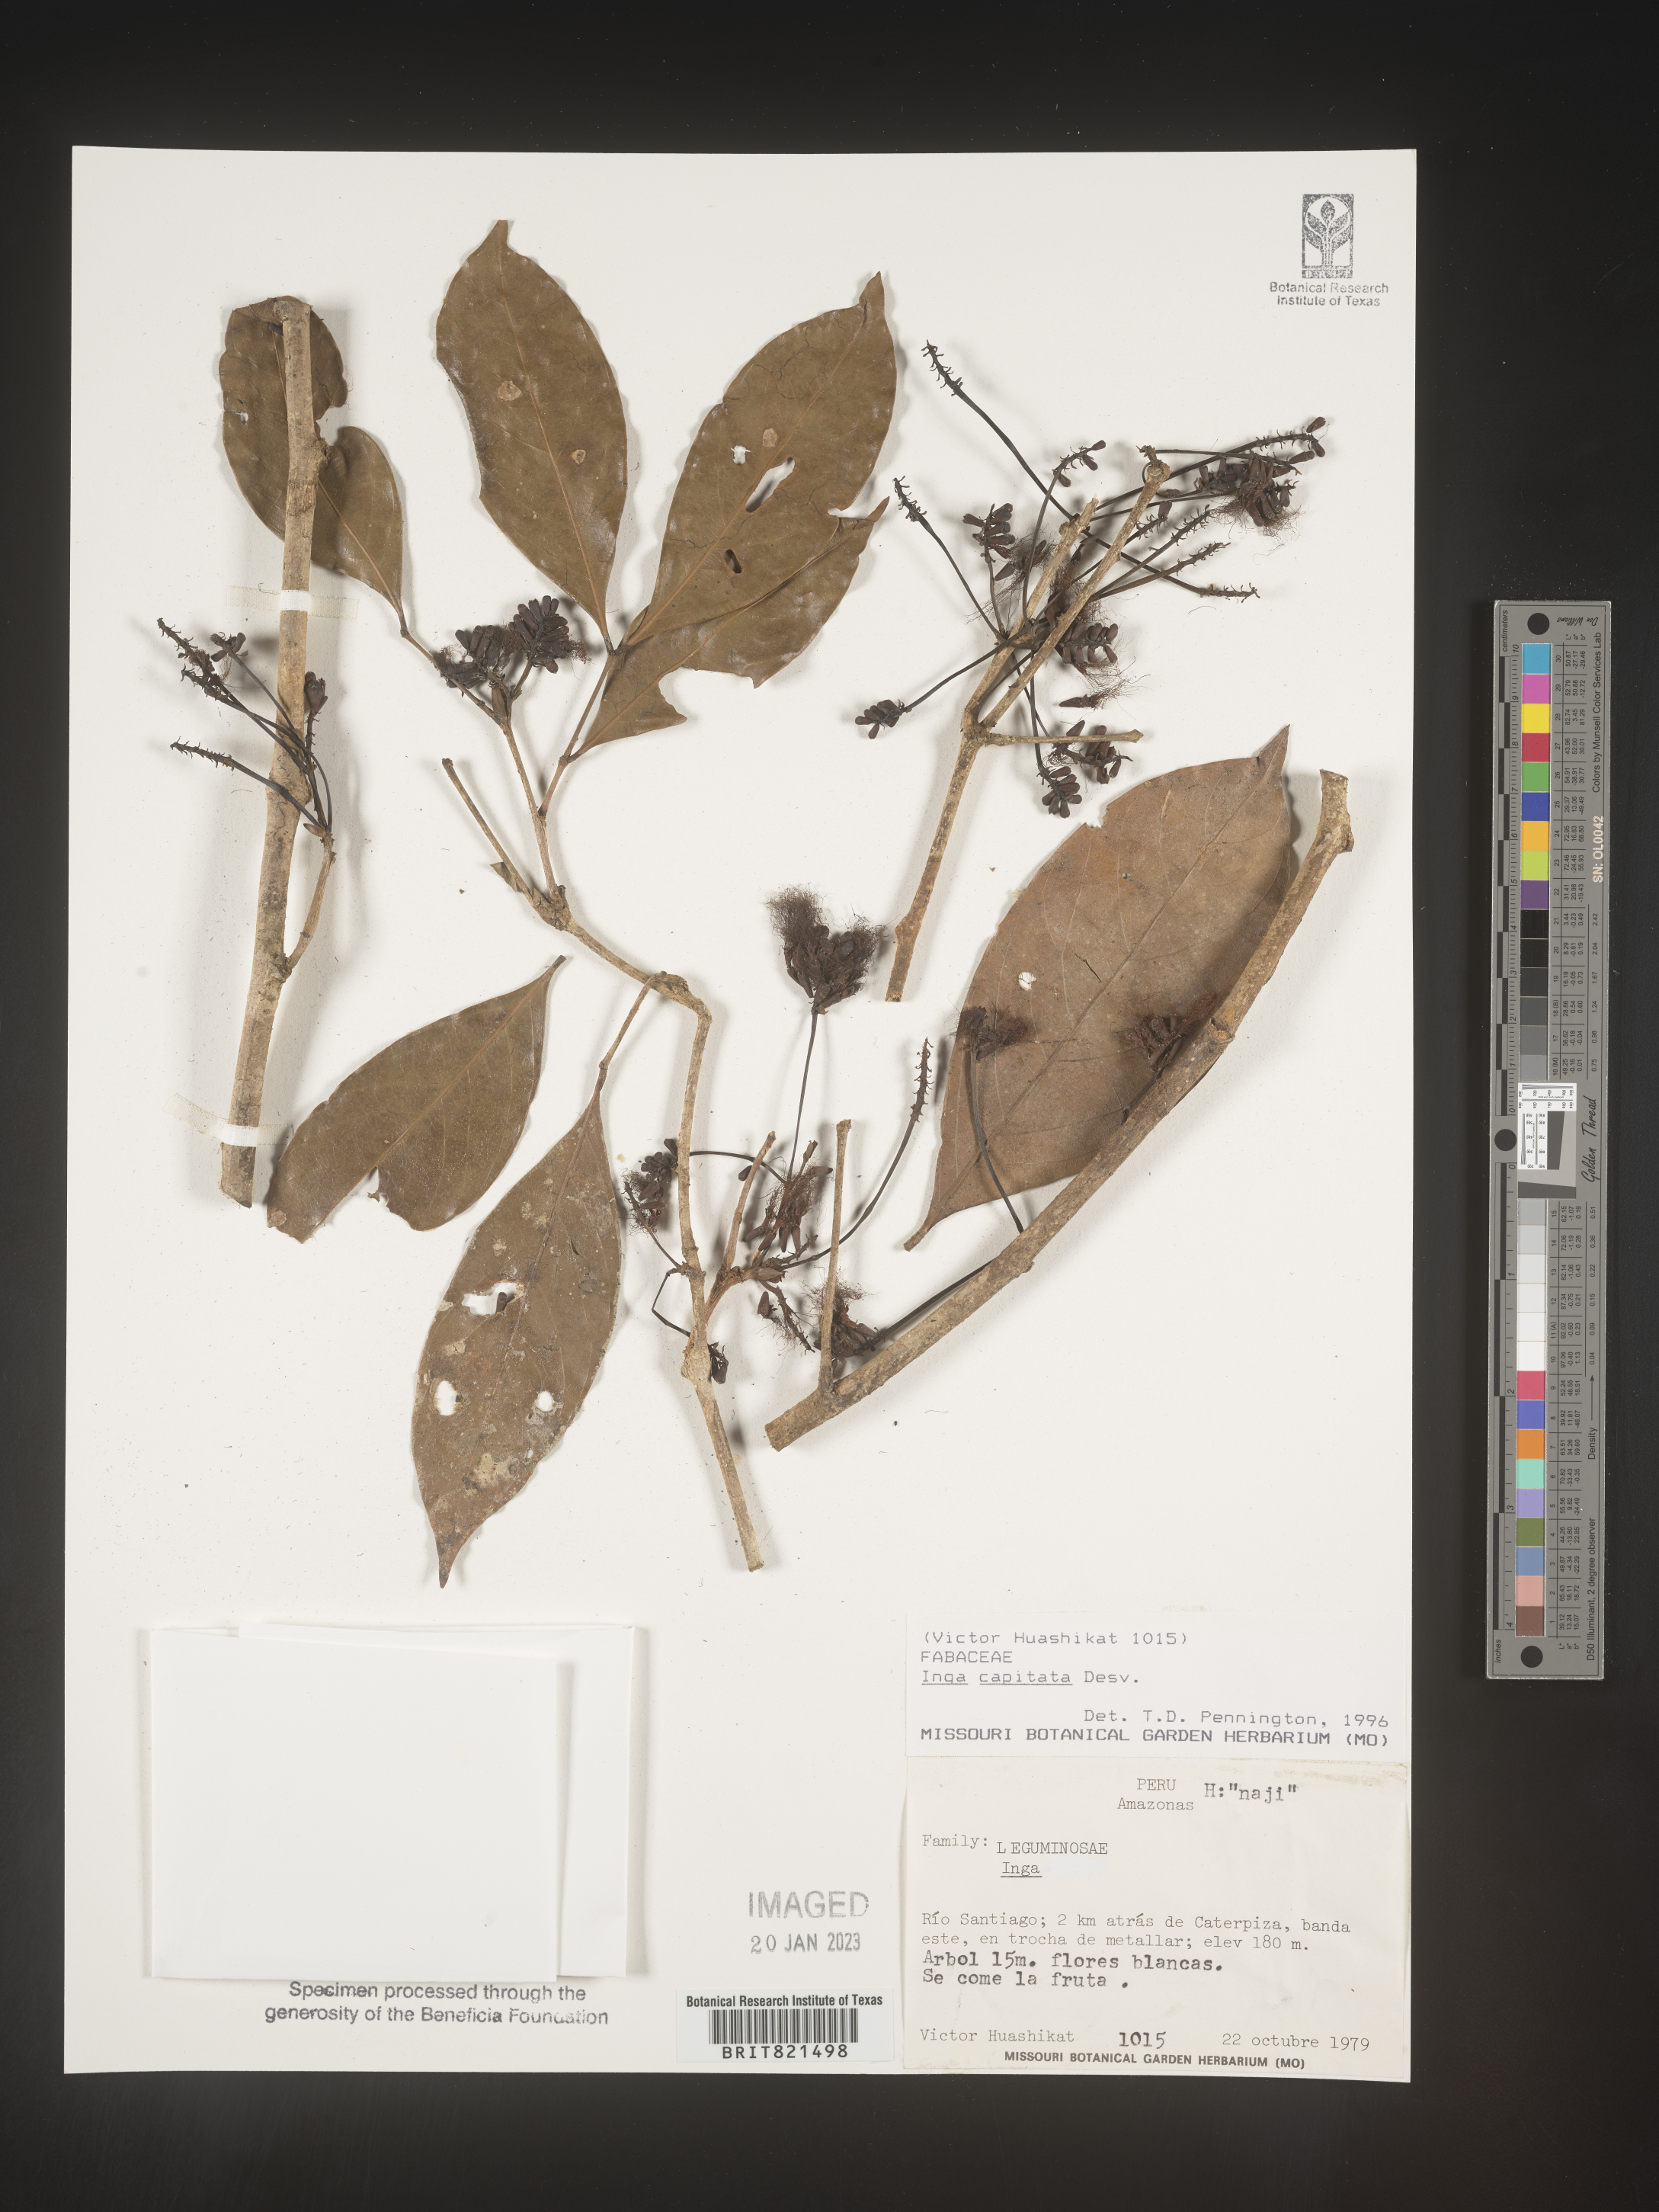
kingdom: Plantae
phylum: Tracheophyta
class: Magnoliopsida
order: Fabales
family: Fabaceae
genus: Inga
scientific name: Inga
